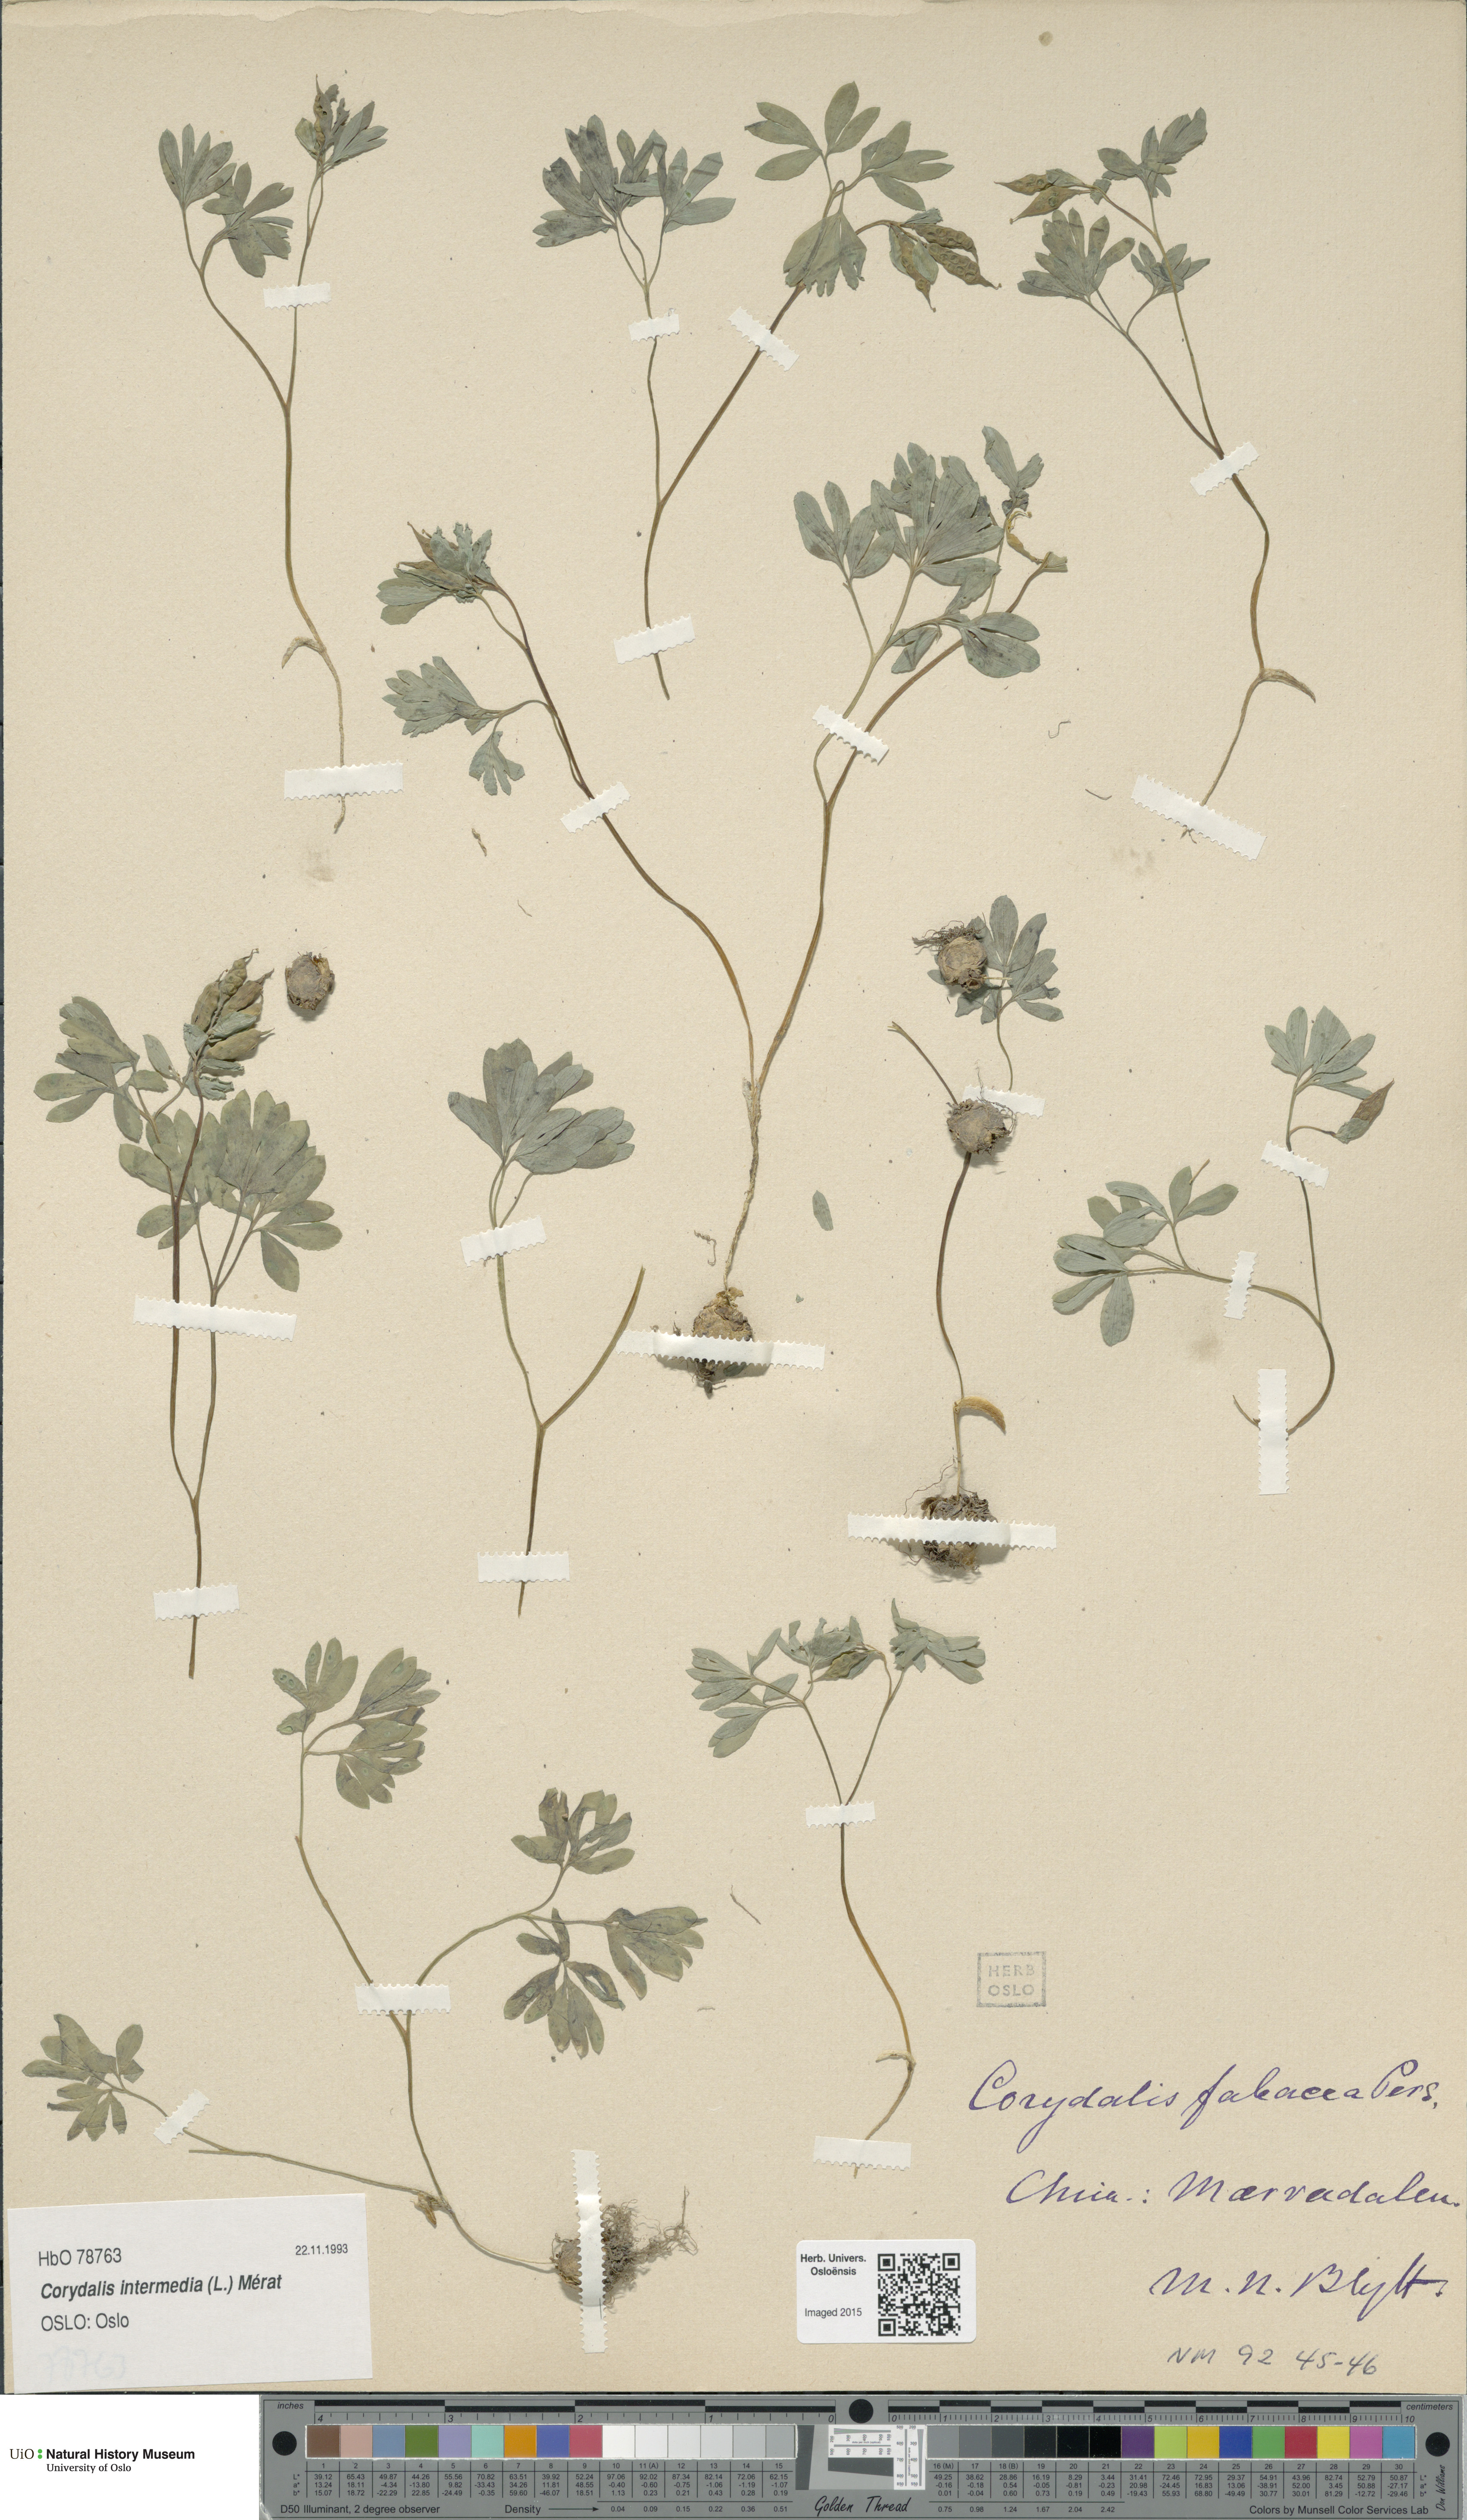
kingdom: Plantae
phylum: Tracheophyta
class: Magnoliopsida
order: Ranunculales
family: Papaveraceae
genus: Corydalis
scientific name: Corydalis intermedia
